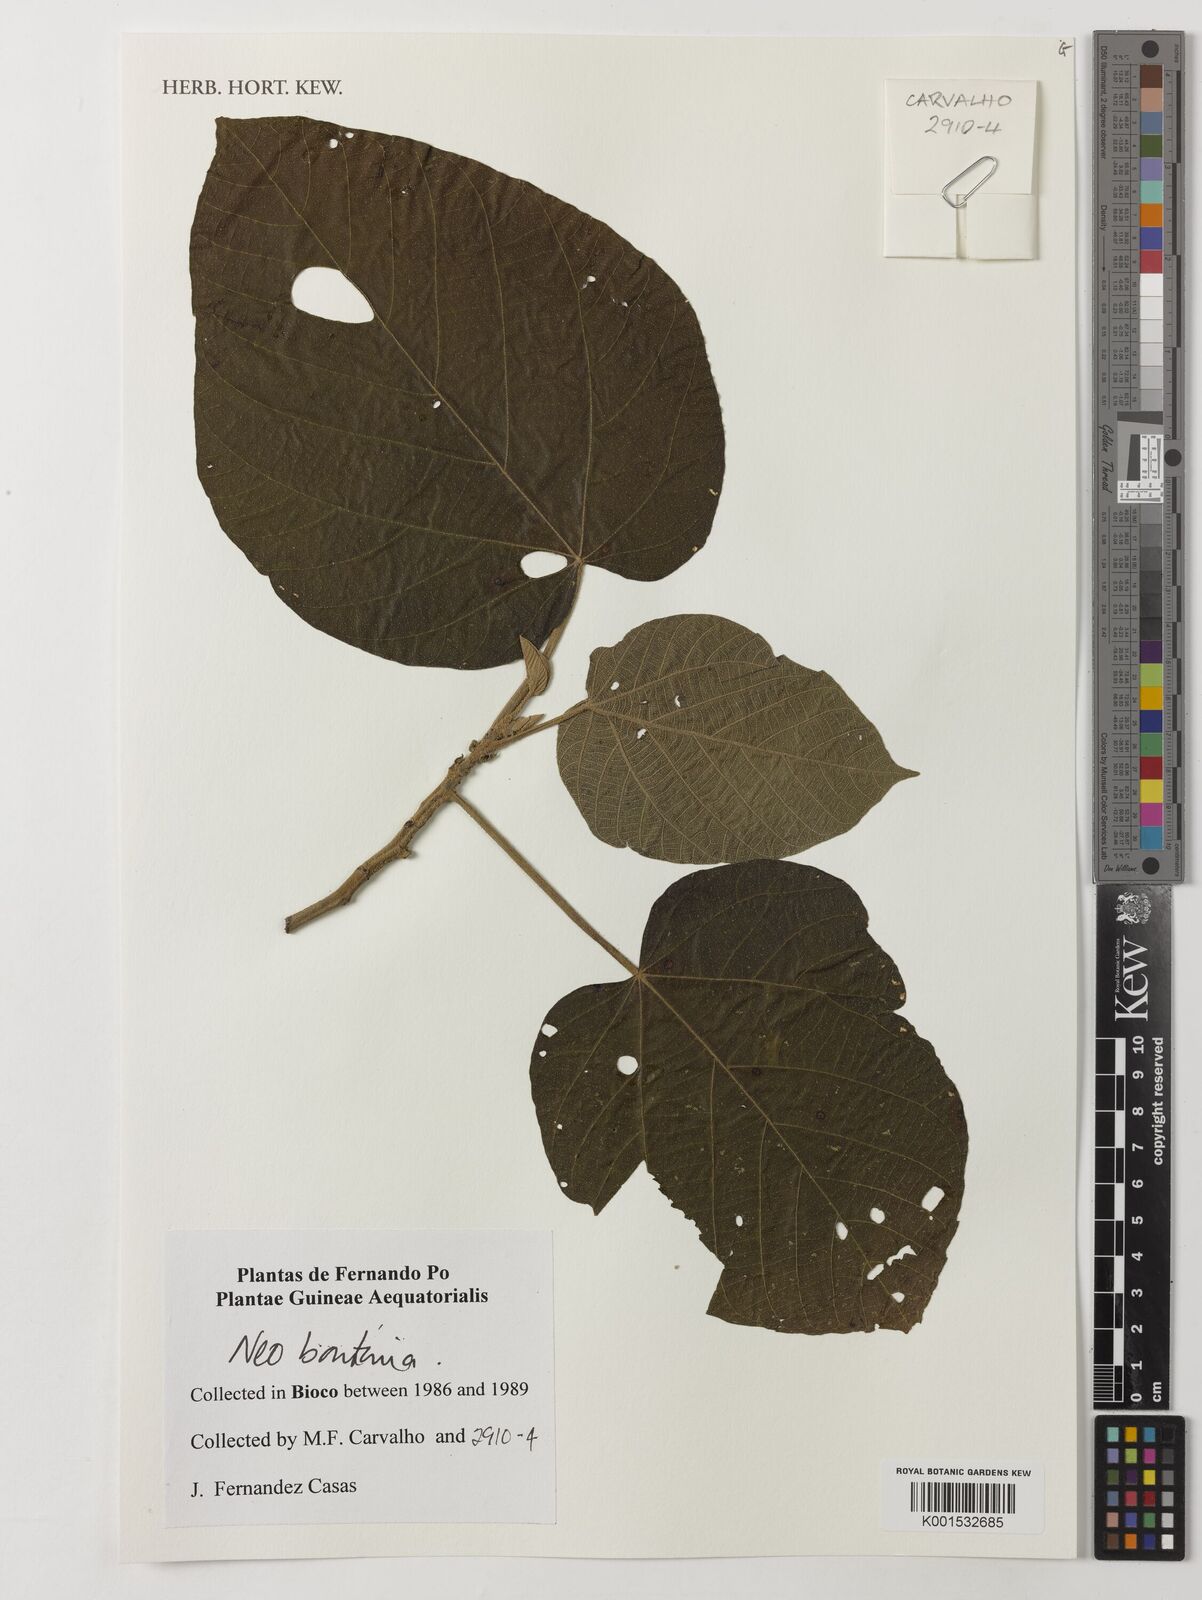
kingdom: Plantae
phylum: Tracheophyta
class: Magnoliopsida
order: Malpighiales
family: Euphorbiaceae
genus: Neoboutonia
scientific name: Neoboutonia
